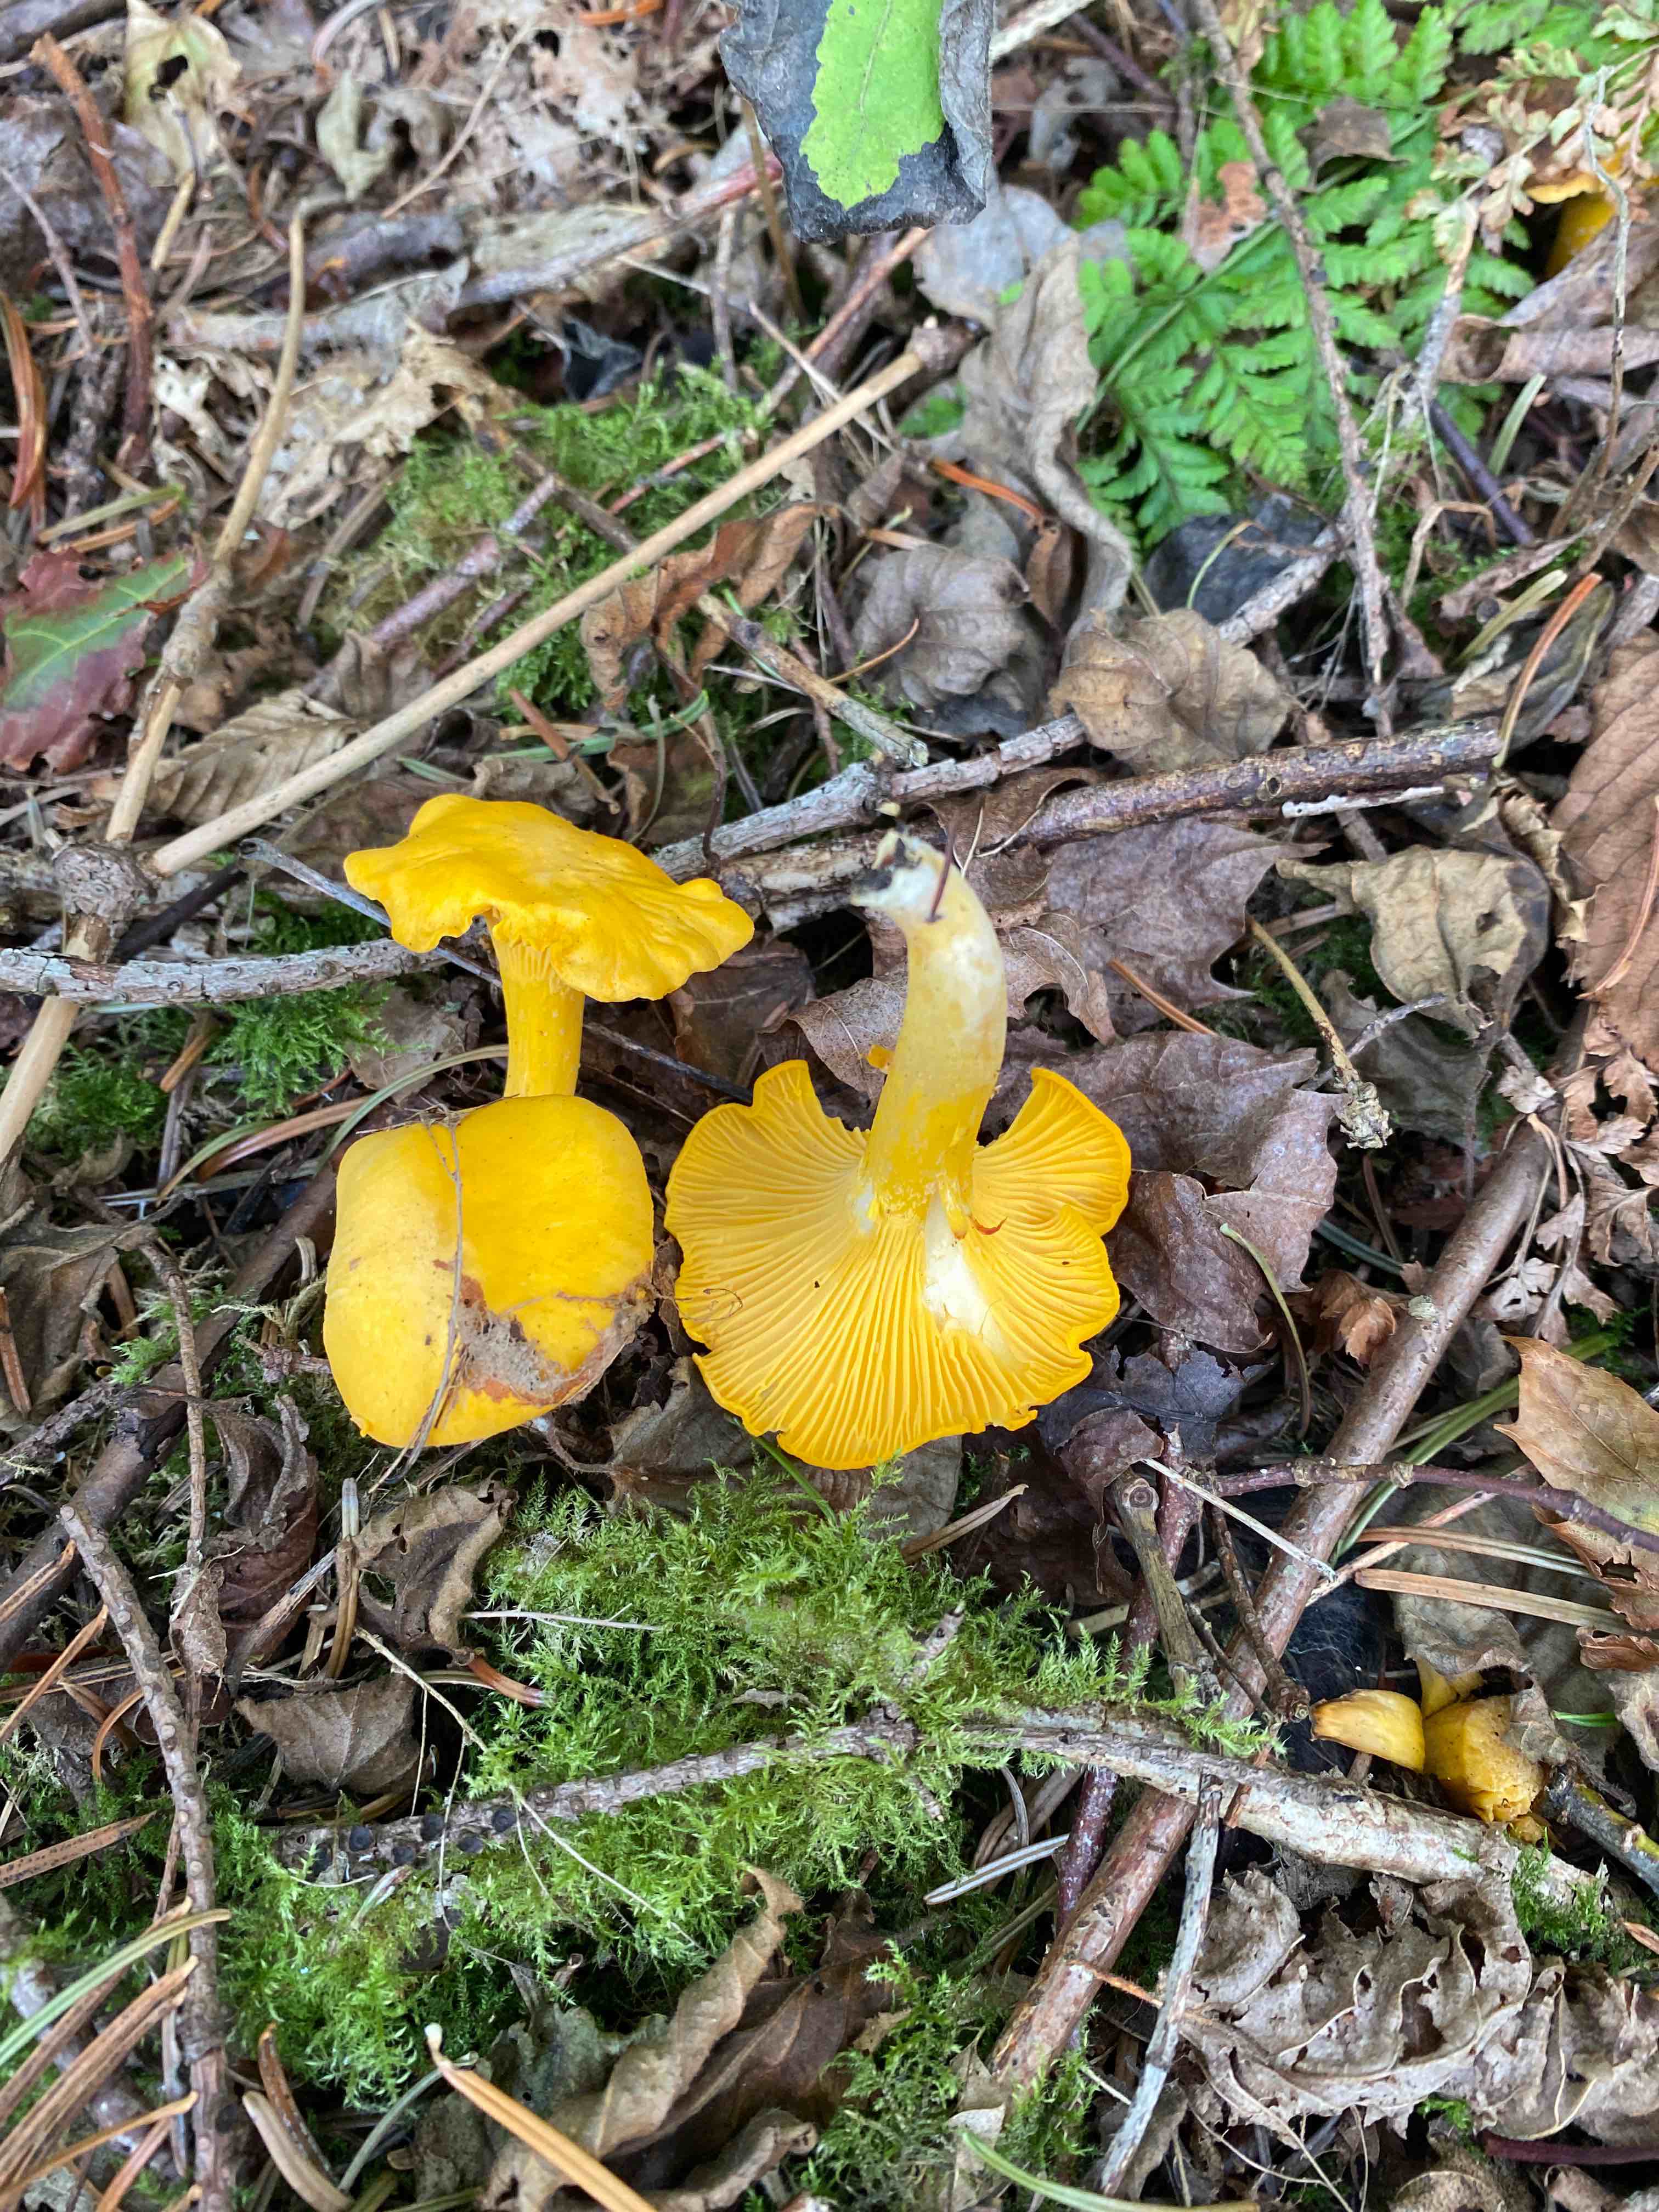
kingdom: Fungi
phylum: Basidiomycota
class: Agaricomycetes
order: Cantharellales
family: Hydnaceae
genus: Cantharellus
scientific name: Cantharellus cibarius
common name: almindelig kantarel
